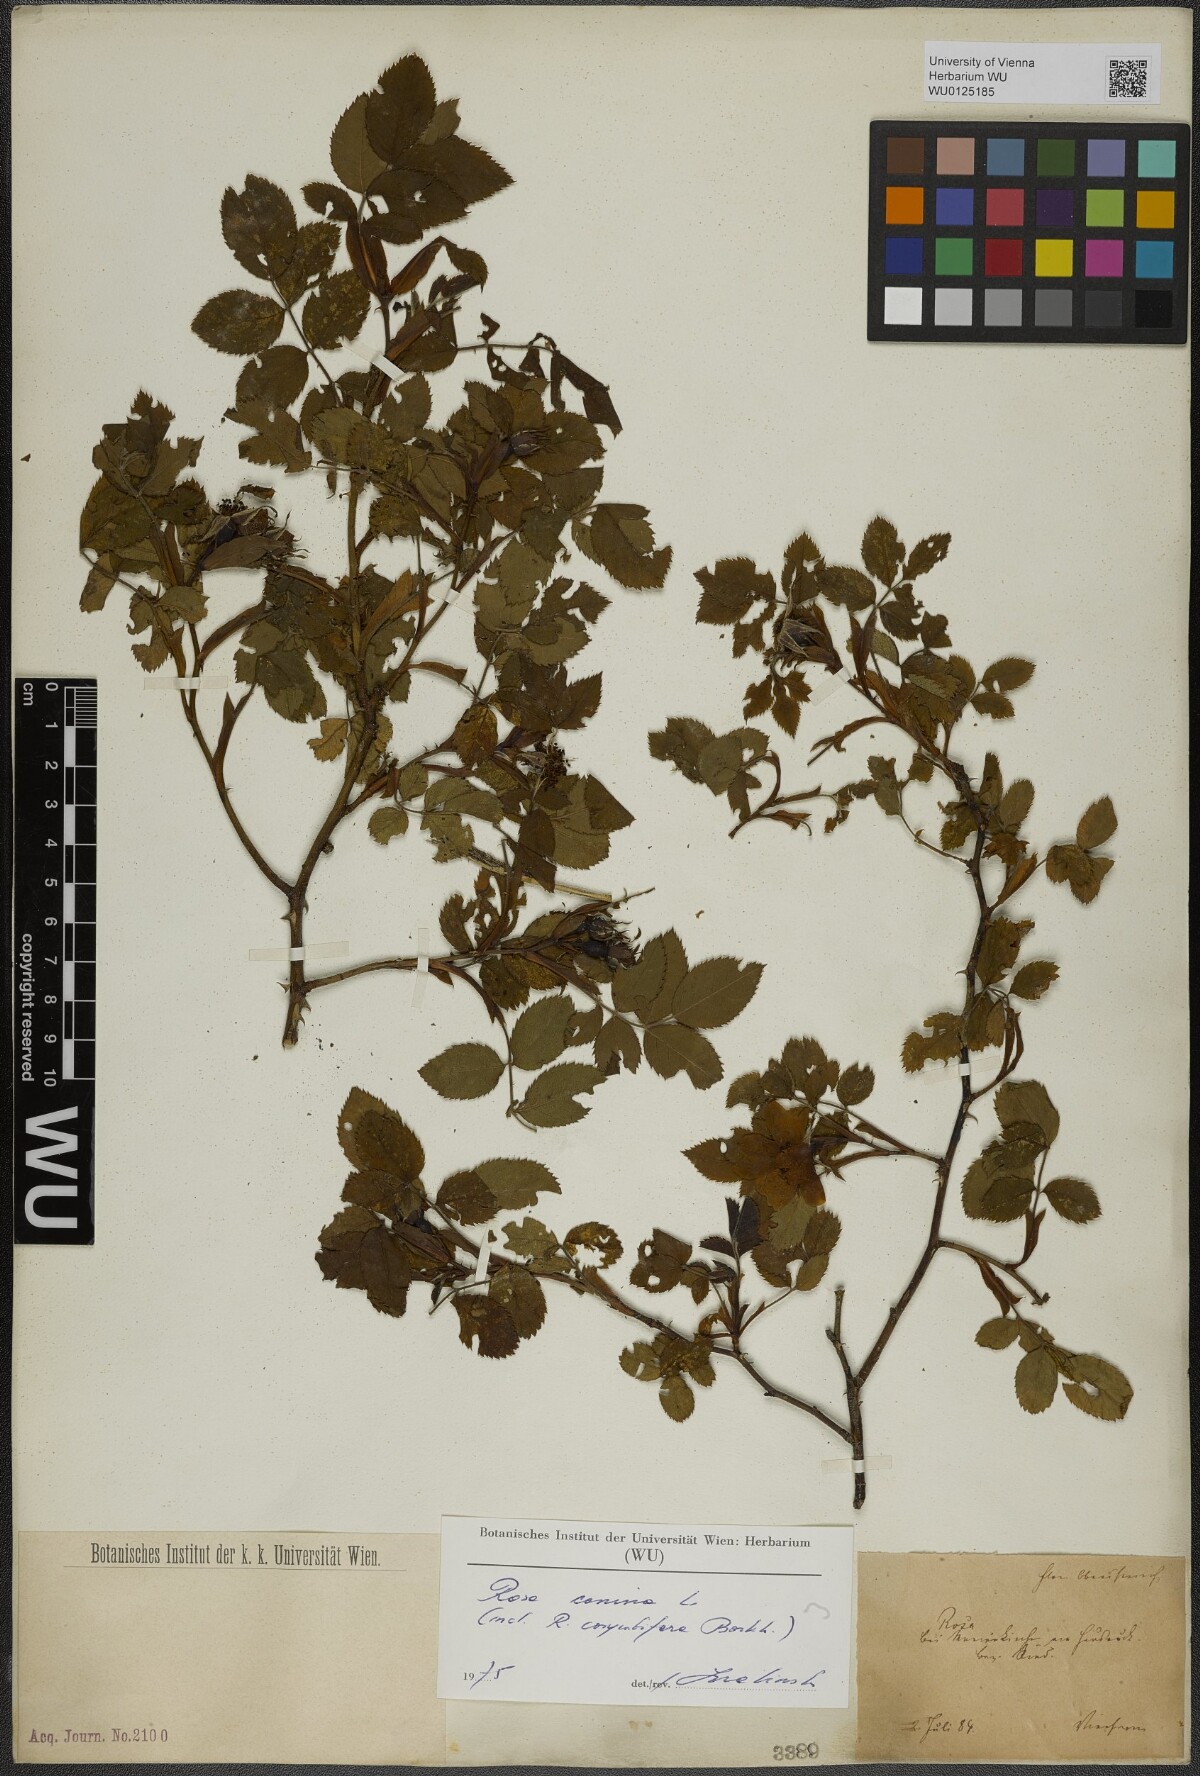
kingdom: Plantae
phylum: Tracheophyta
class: Magnoliopsida
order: Rosales
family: Rosaceae
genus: Rosa
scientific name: Rosa canina
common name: Dog rose
